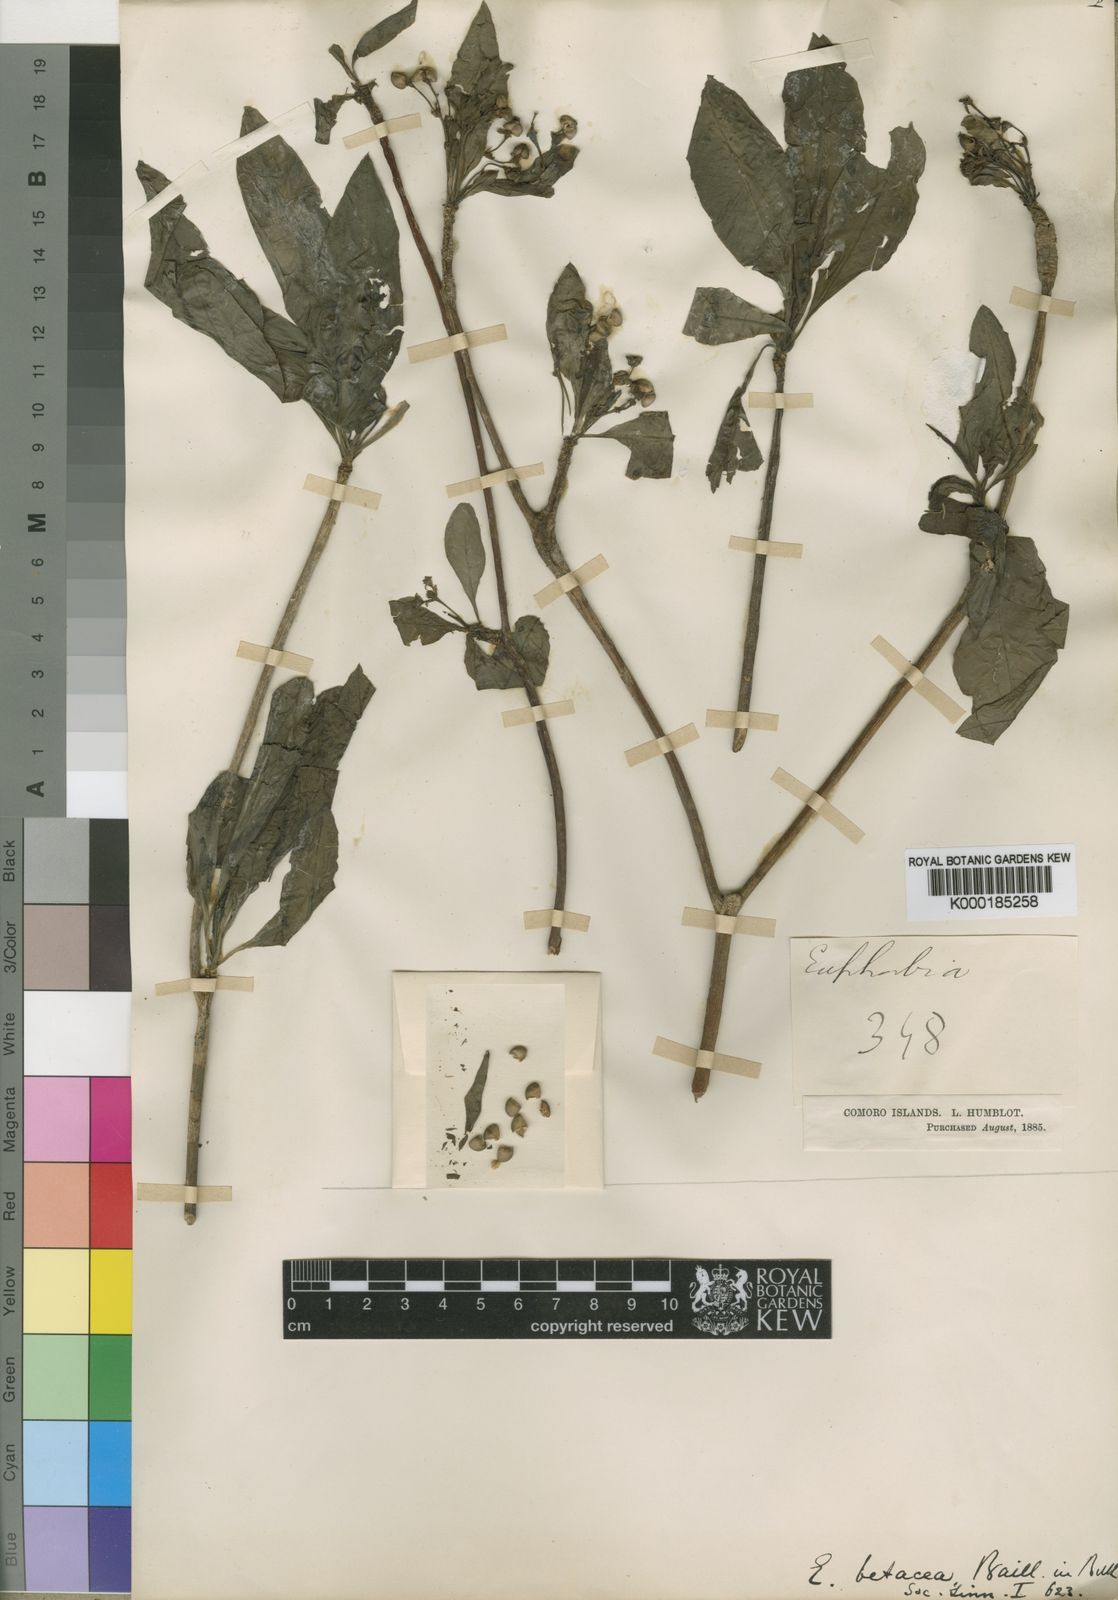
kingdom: Plantae
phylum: Tracheophyta
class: Magnoliopsida
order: Malpighiales
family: Euphorbiaceae
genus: Euphorbia
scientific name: Euphorbia betacea
